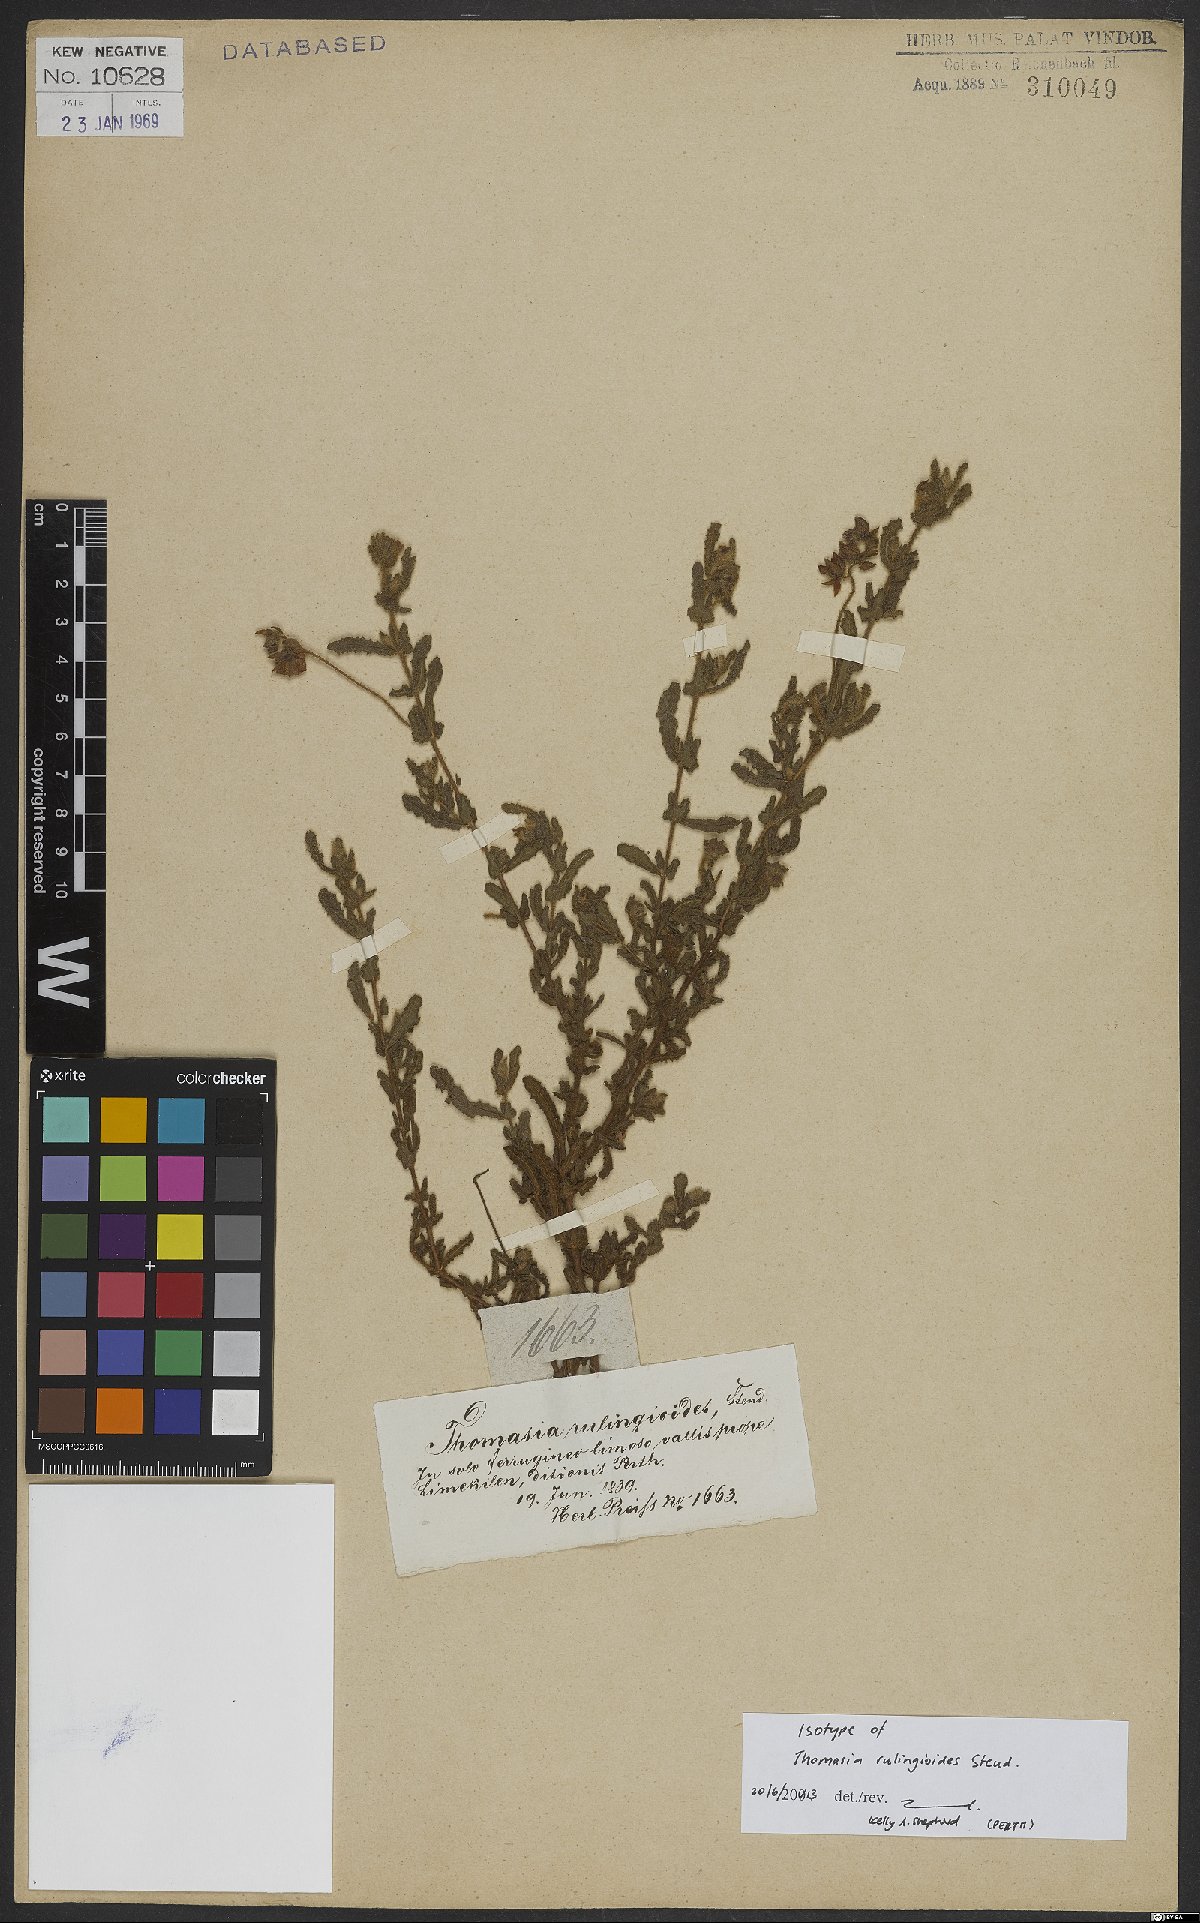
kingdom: Plantae
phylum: Tracheophyta
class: Magnoliopsida
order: Malvales
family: Malvaceae
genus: Thomasia
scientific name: Thomasia rulingioides
